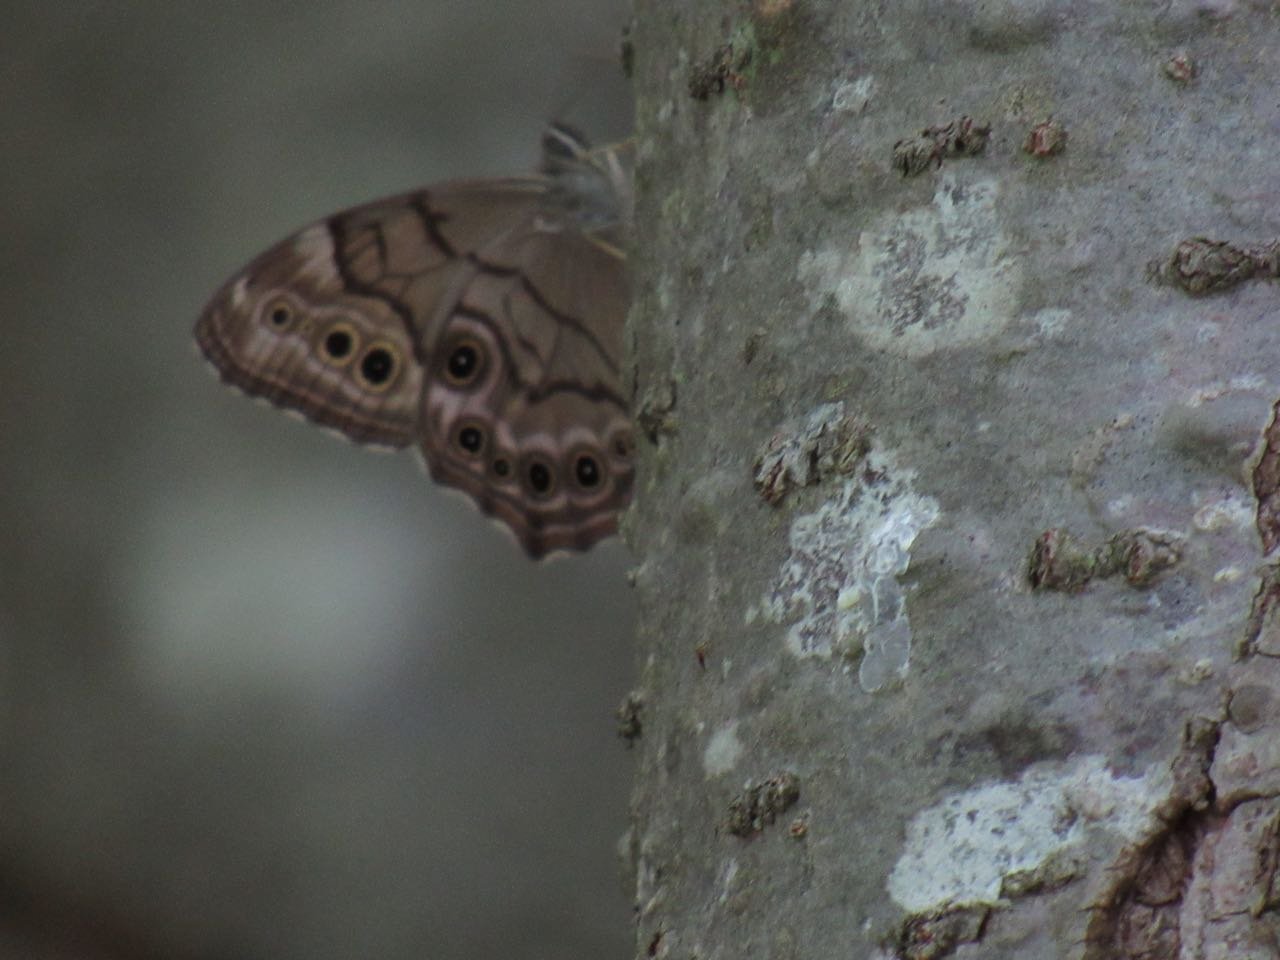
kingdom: Animalia
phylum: Arthropoda
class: Insecta
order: Lepidoptera
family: Nymphalidae
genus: Lethe
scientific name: Lethe anthedon
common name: Northern Pearly-Eye
